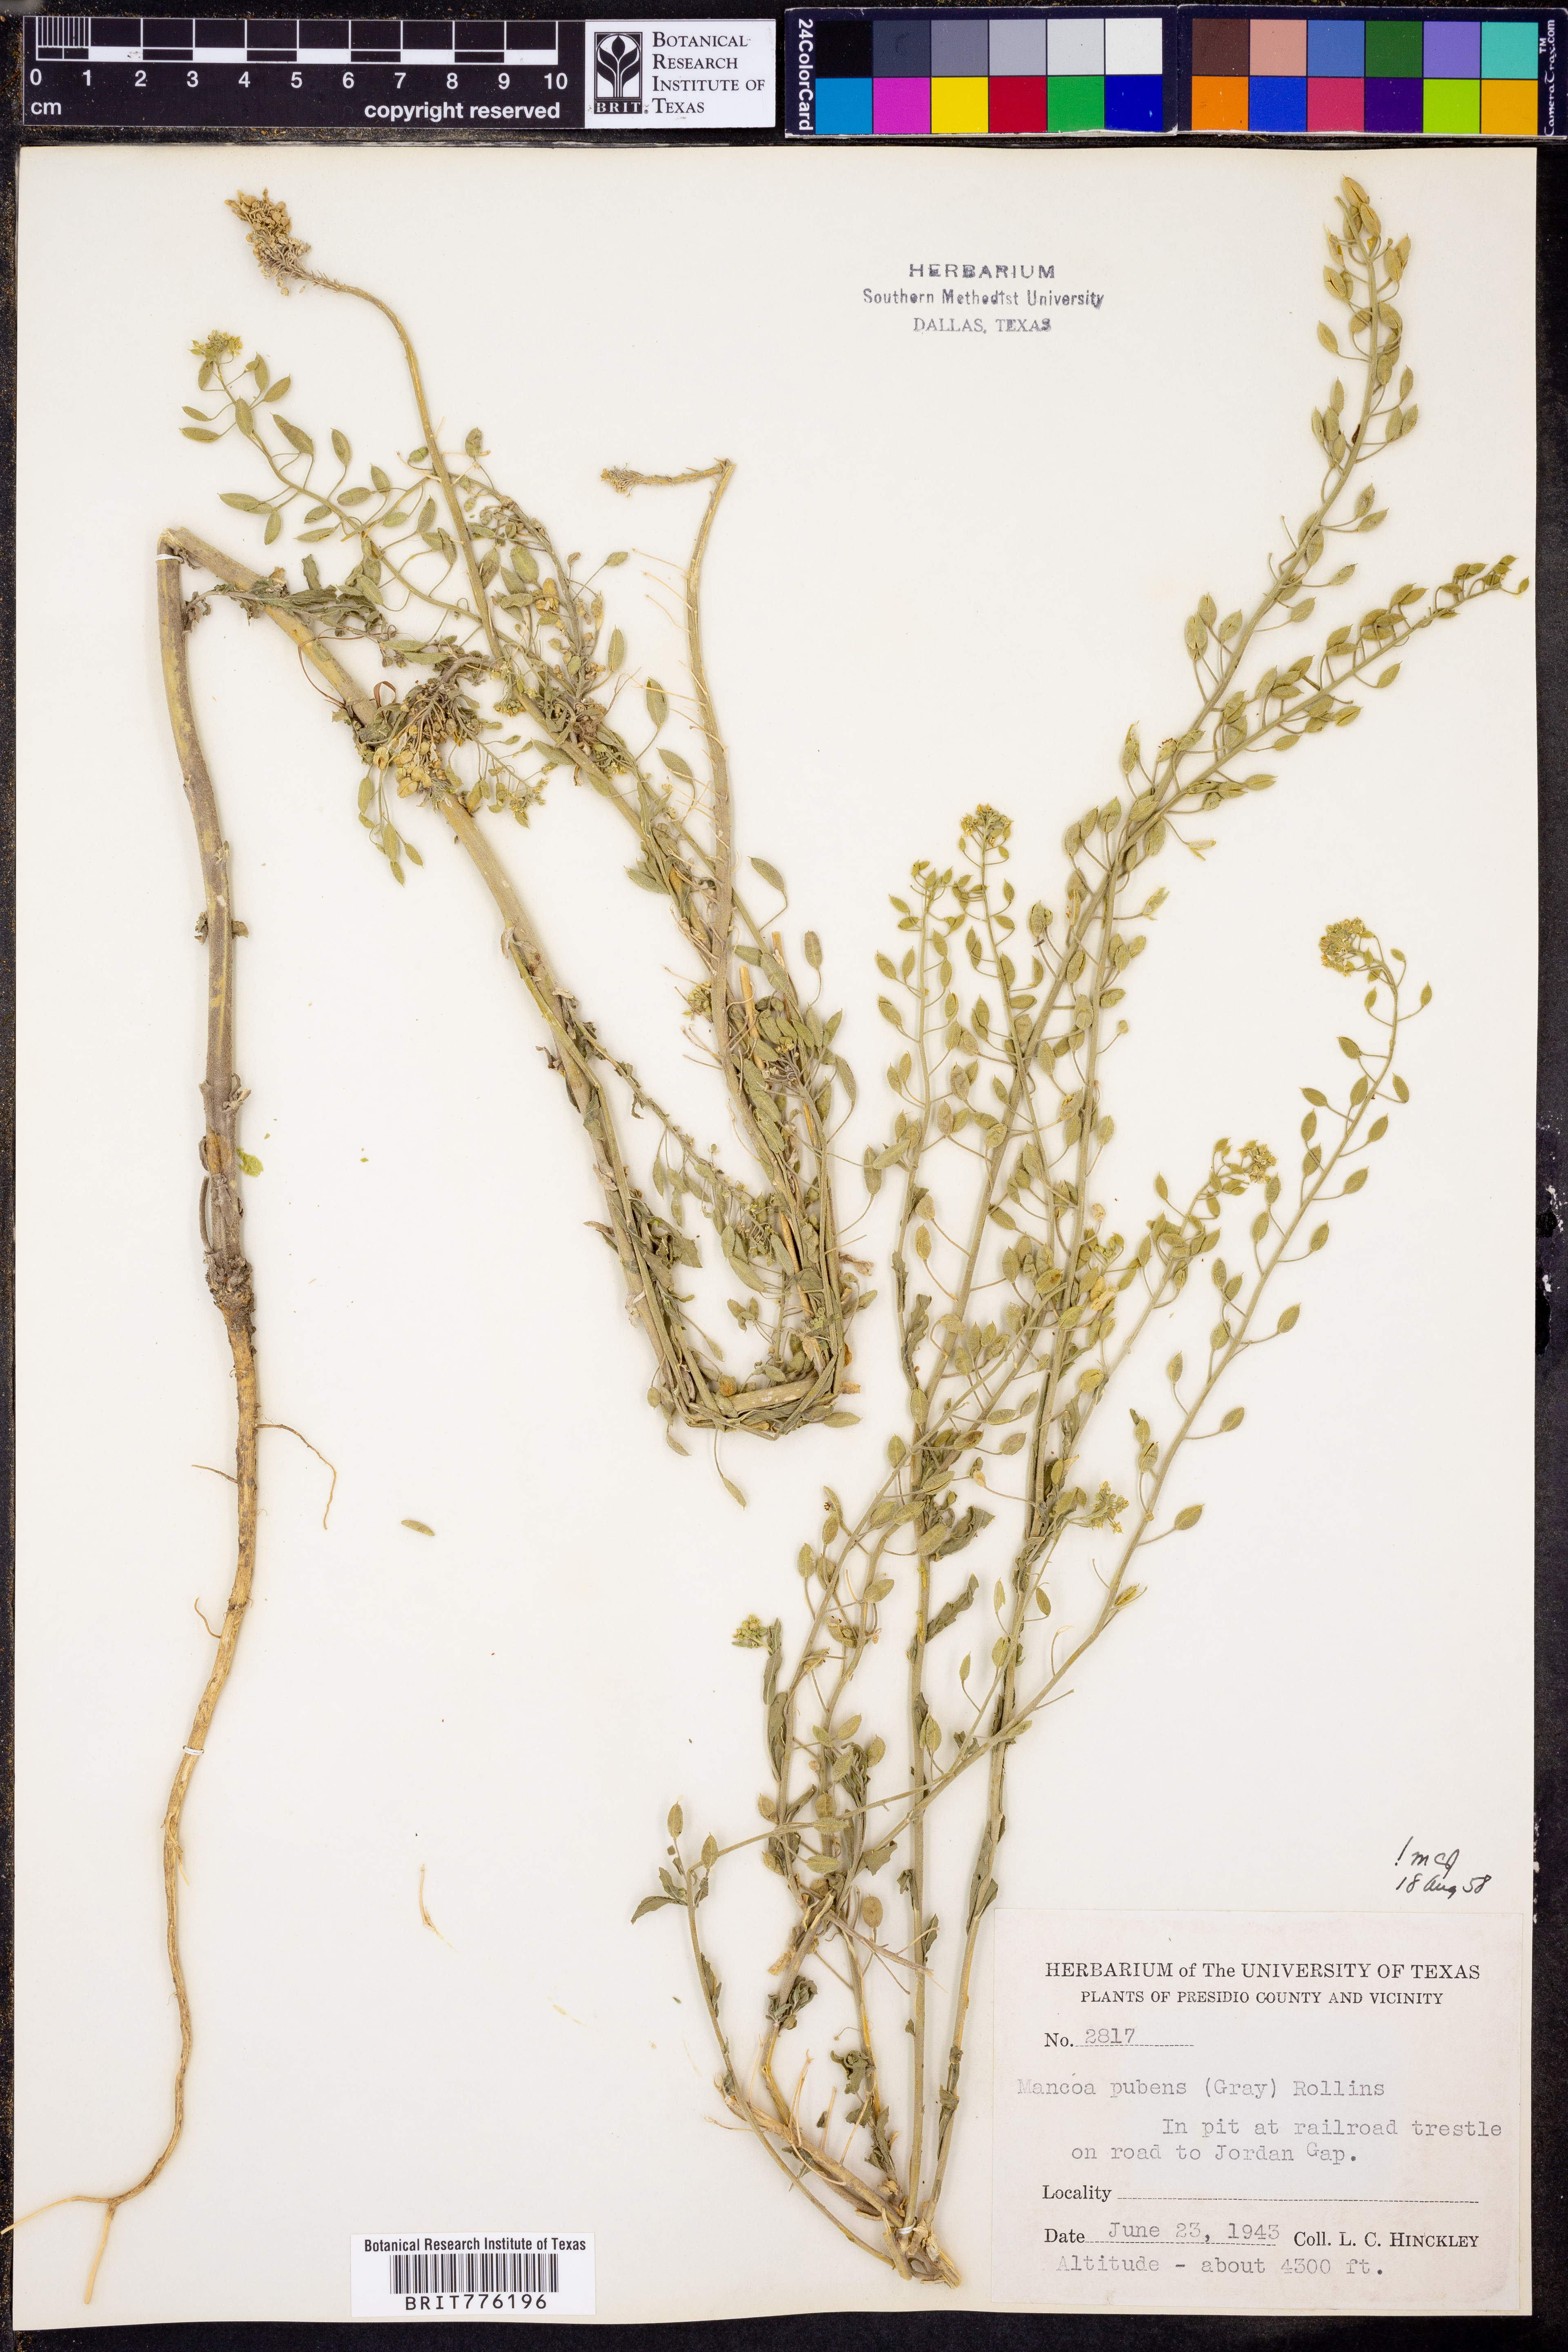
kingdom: Plantae
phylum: Tracheophyta
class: Magnoliopsida
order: Brassicales
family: Brassicaceae
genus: Halimolobos
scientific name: Halimolobos pubens
